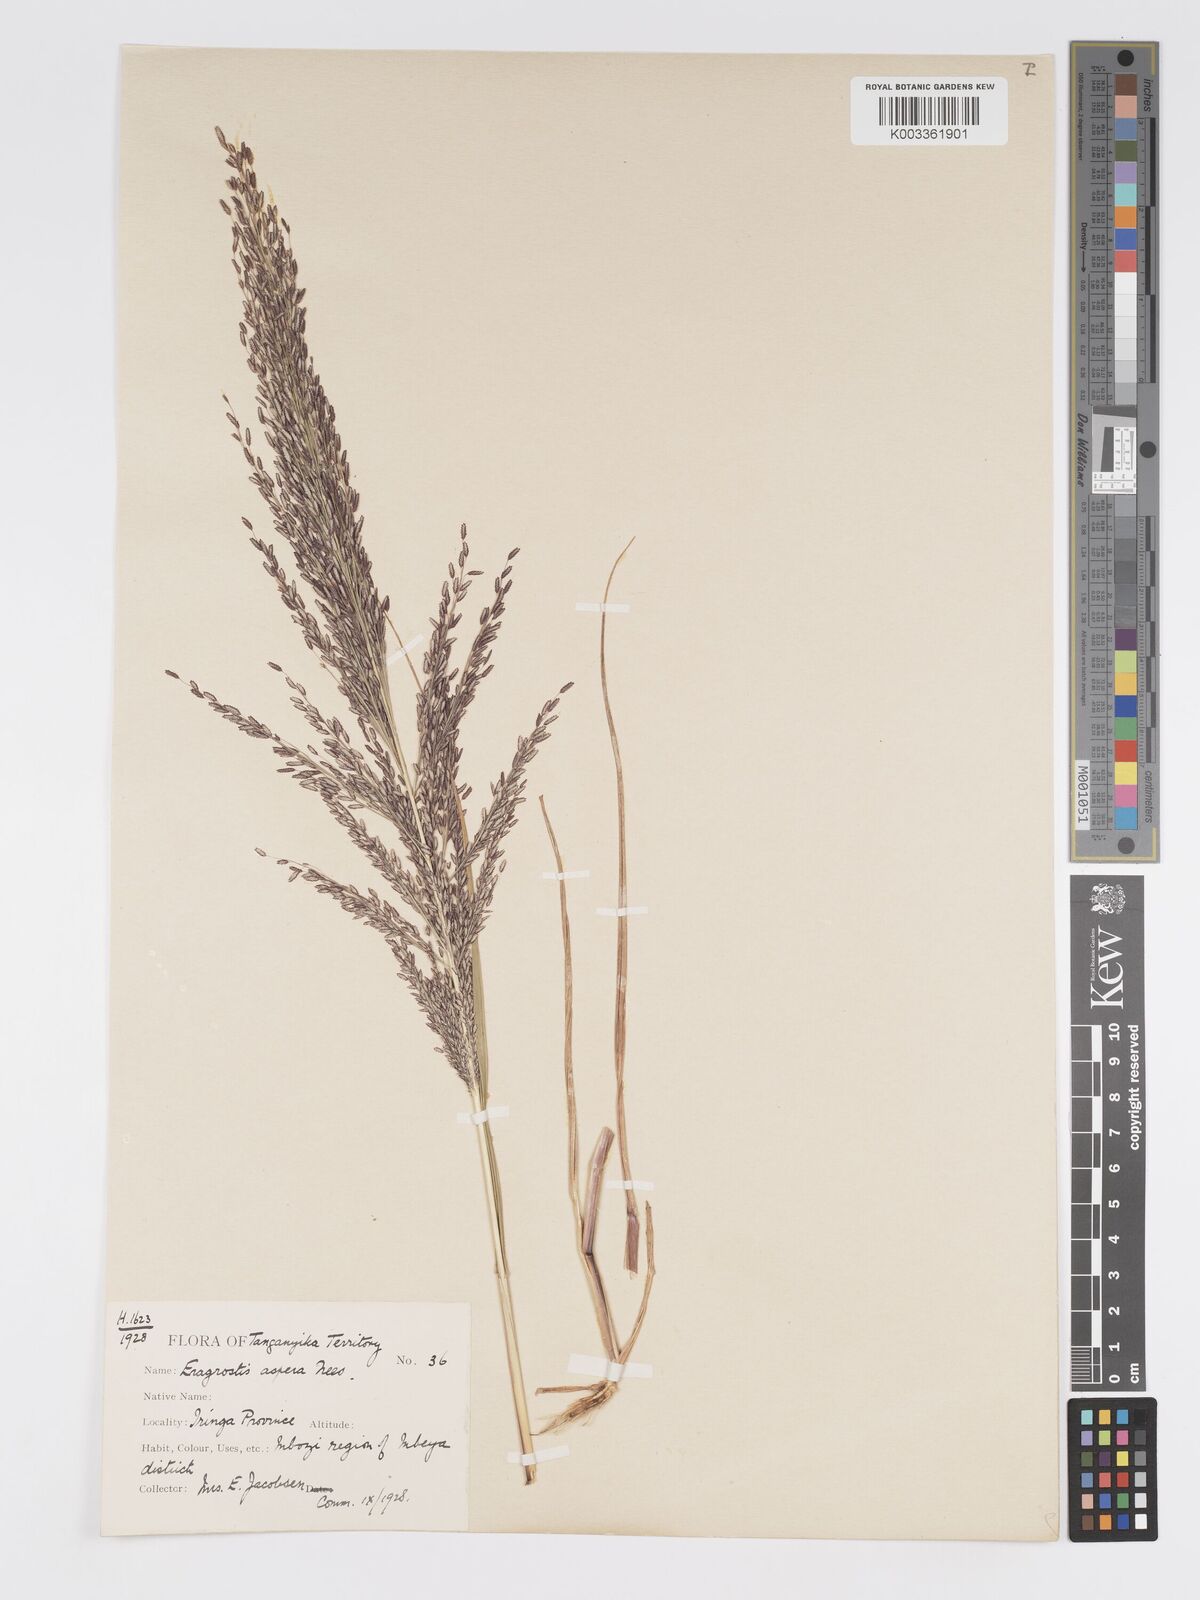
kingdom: Plantae
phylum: Tracheophyta
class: Liliopsida
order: Poales
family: Poaceae
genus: Eragrostis
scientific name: Eragrostis aspera
